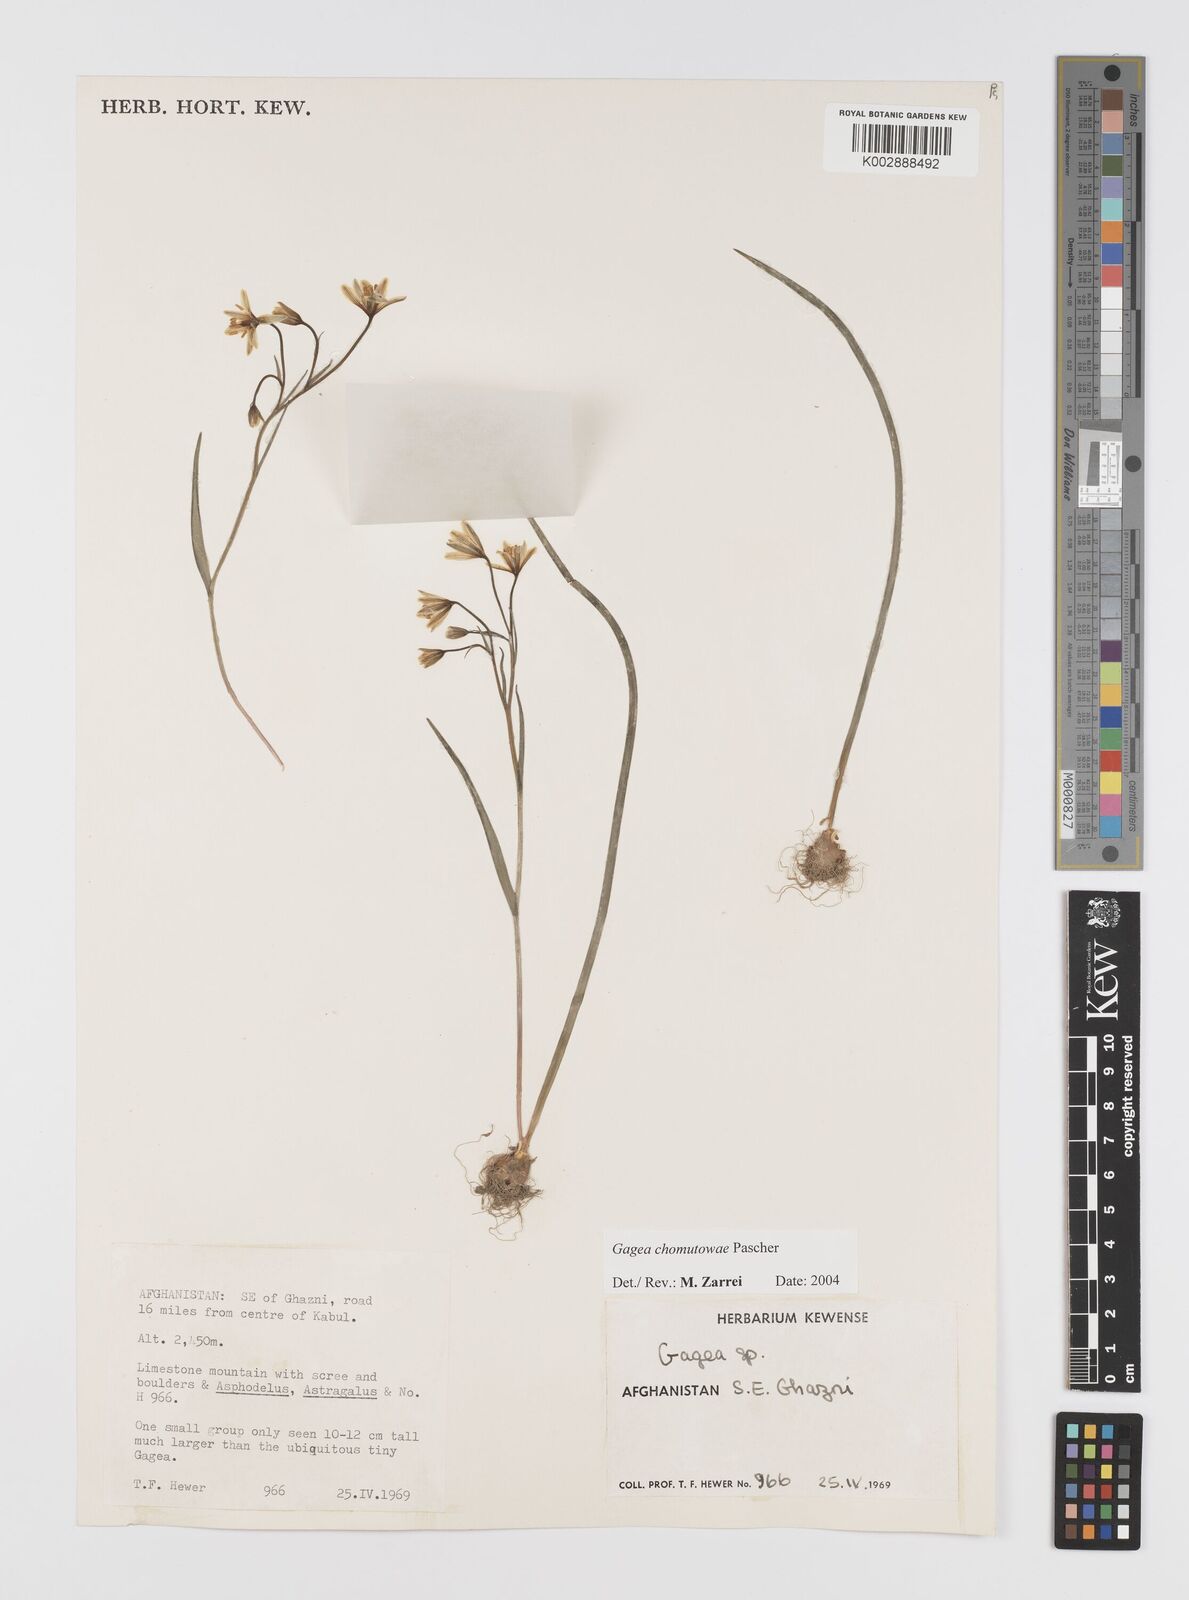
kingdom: Plantae
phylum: Tracheophyta
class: Liliopsida
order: Liliales
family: Liliaceae
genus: Gagea
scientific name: Gagea chomutovae
